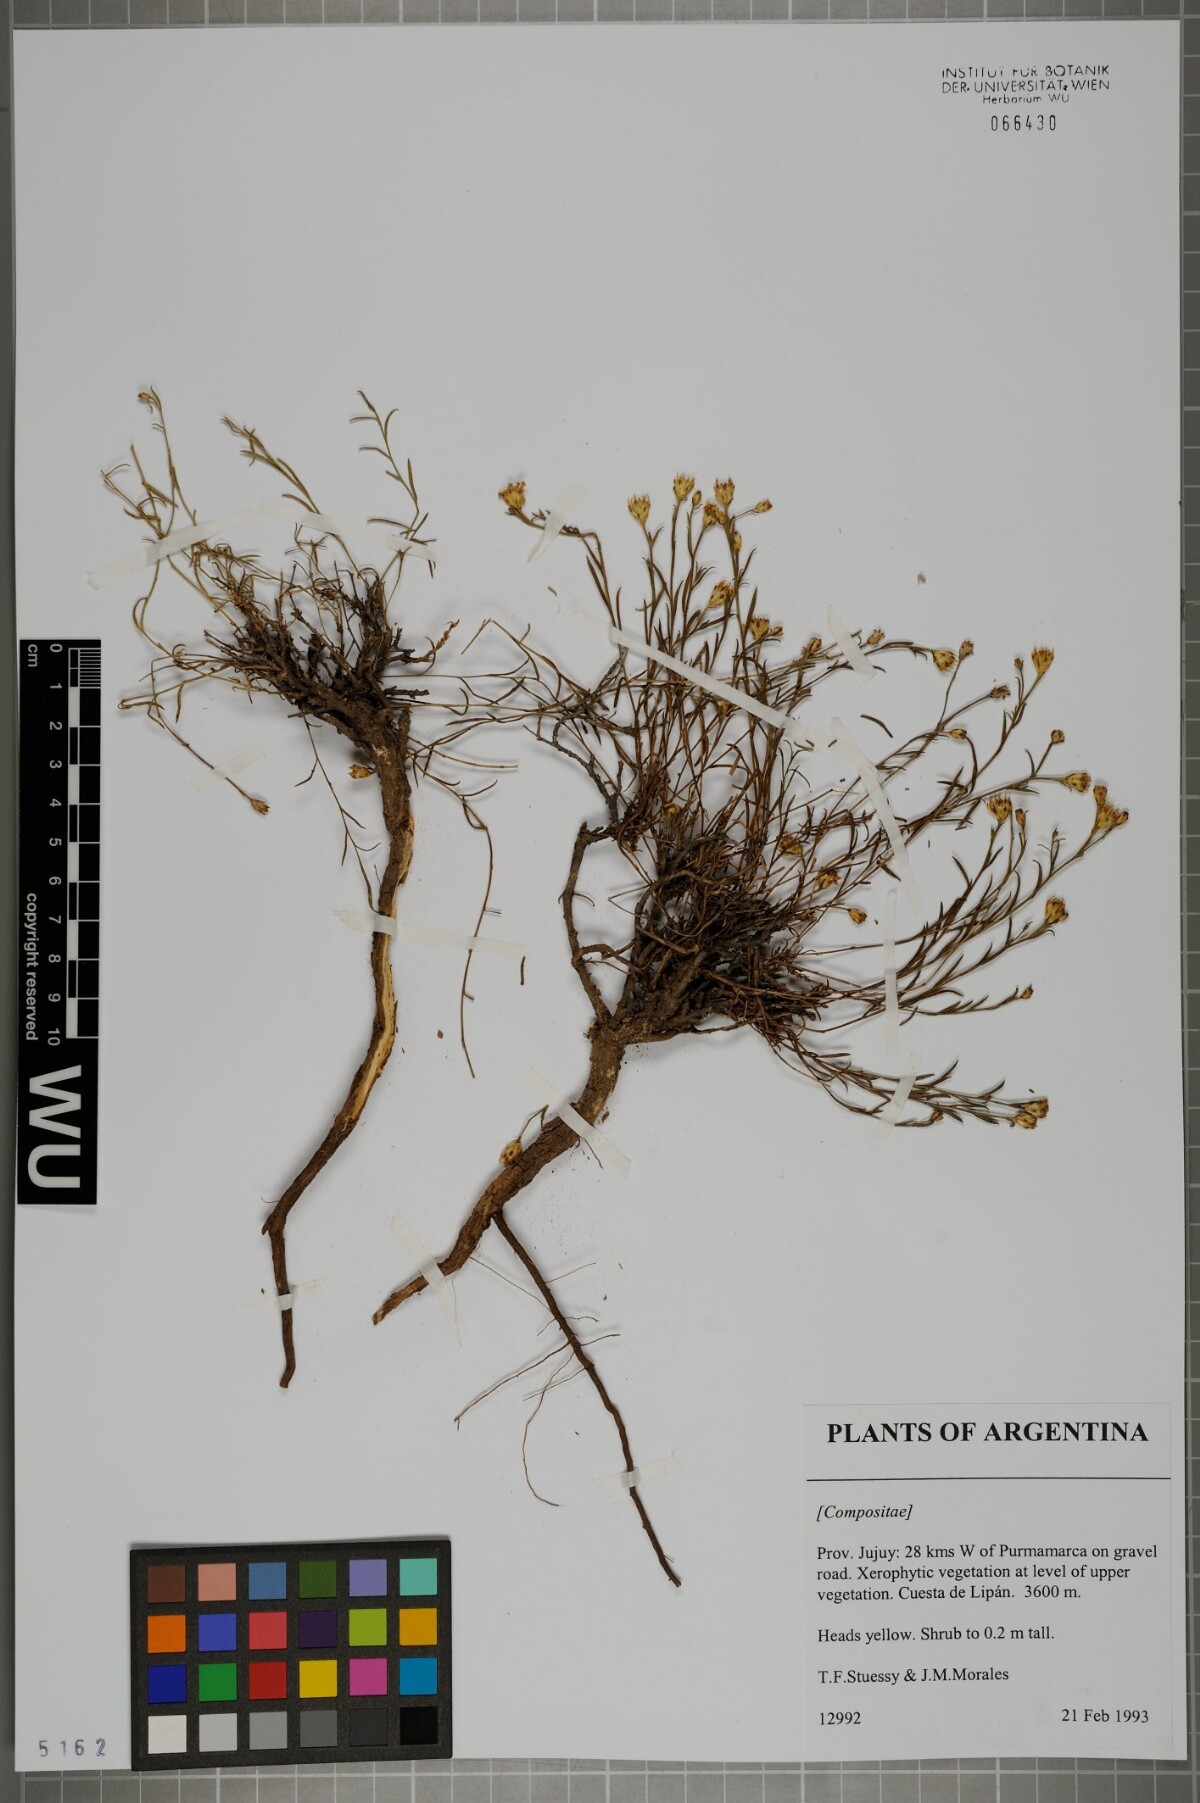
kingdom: Plantae
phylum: Tracheophyta
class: Magnoliopsida
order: Asterales
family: Asteraceae
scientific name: Asteraceae
